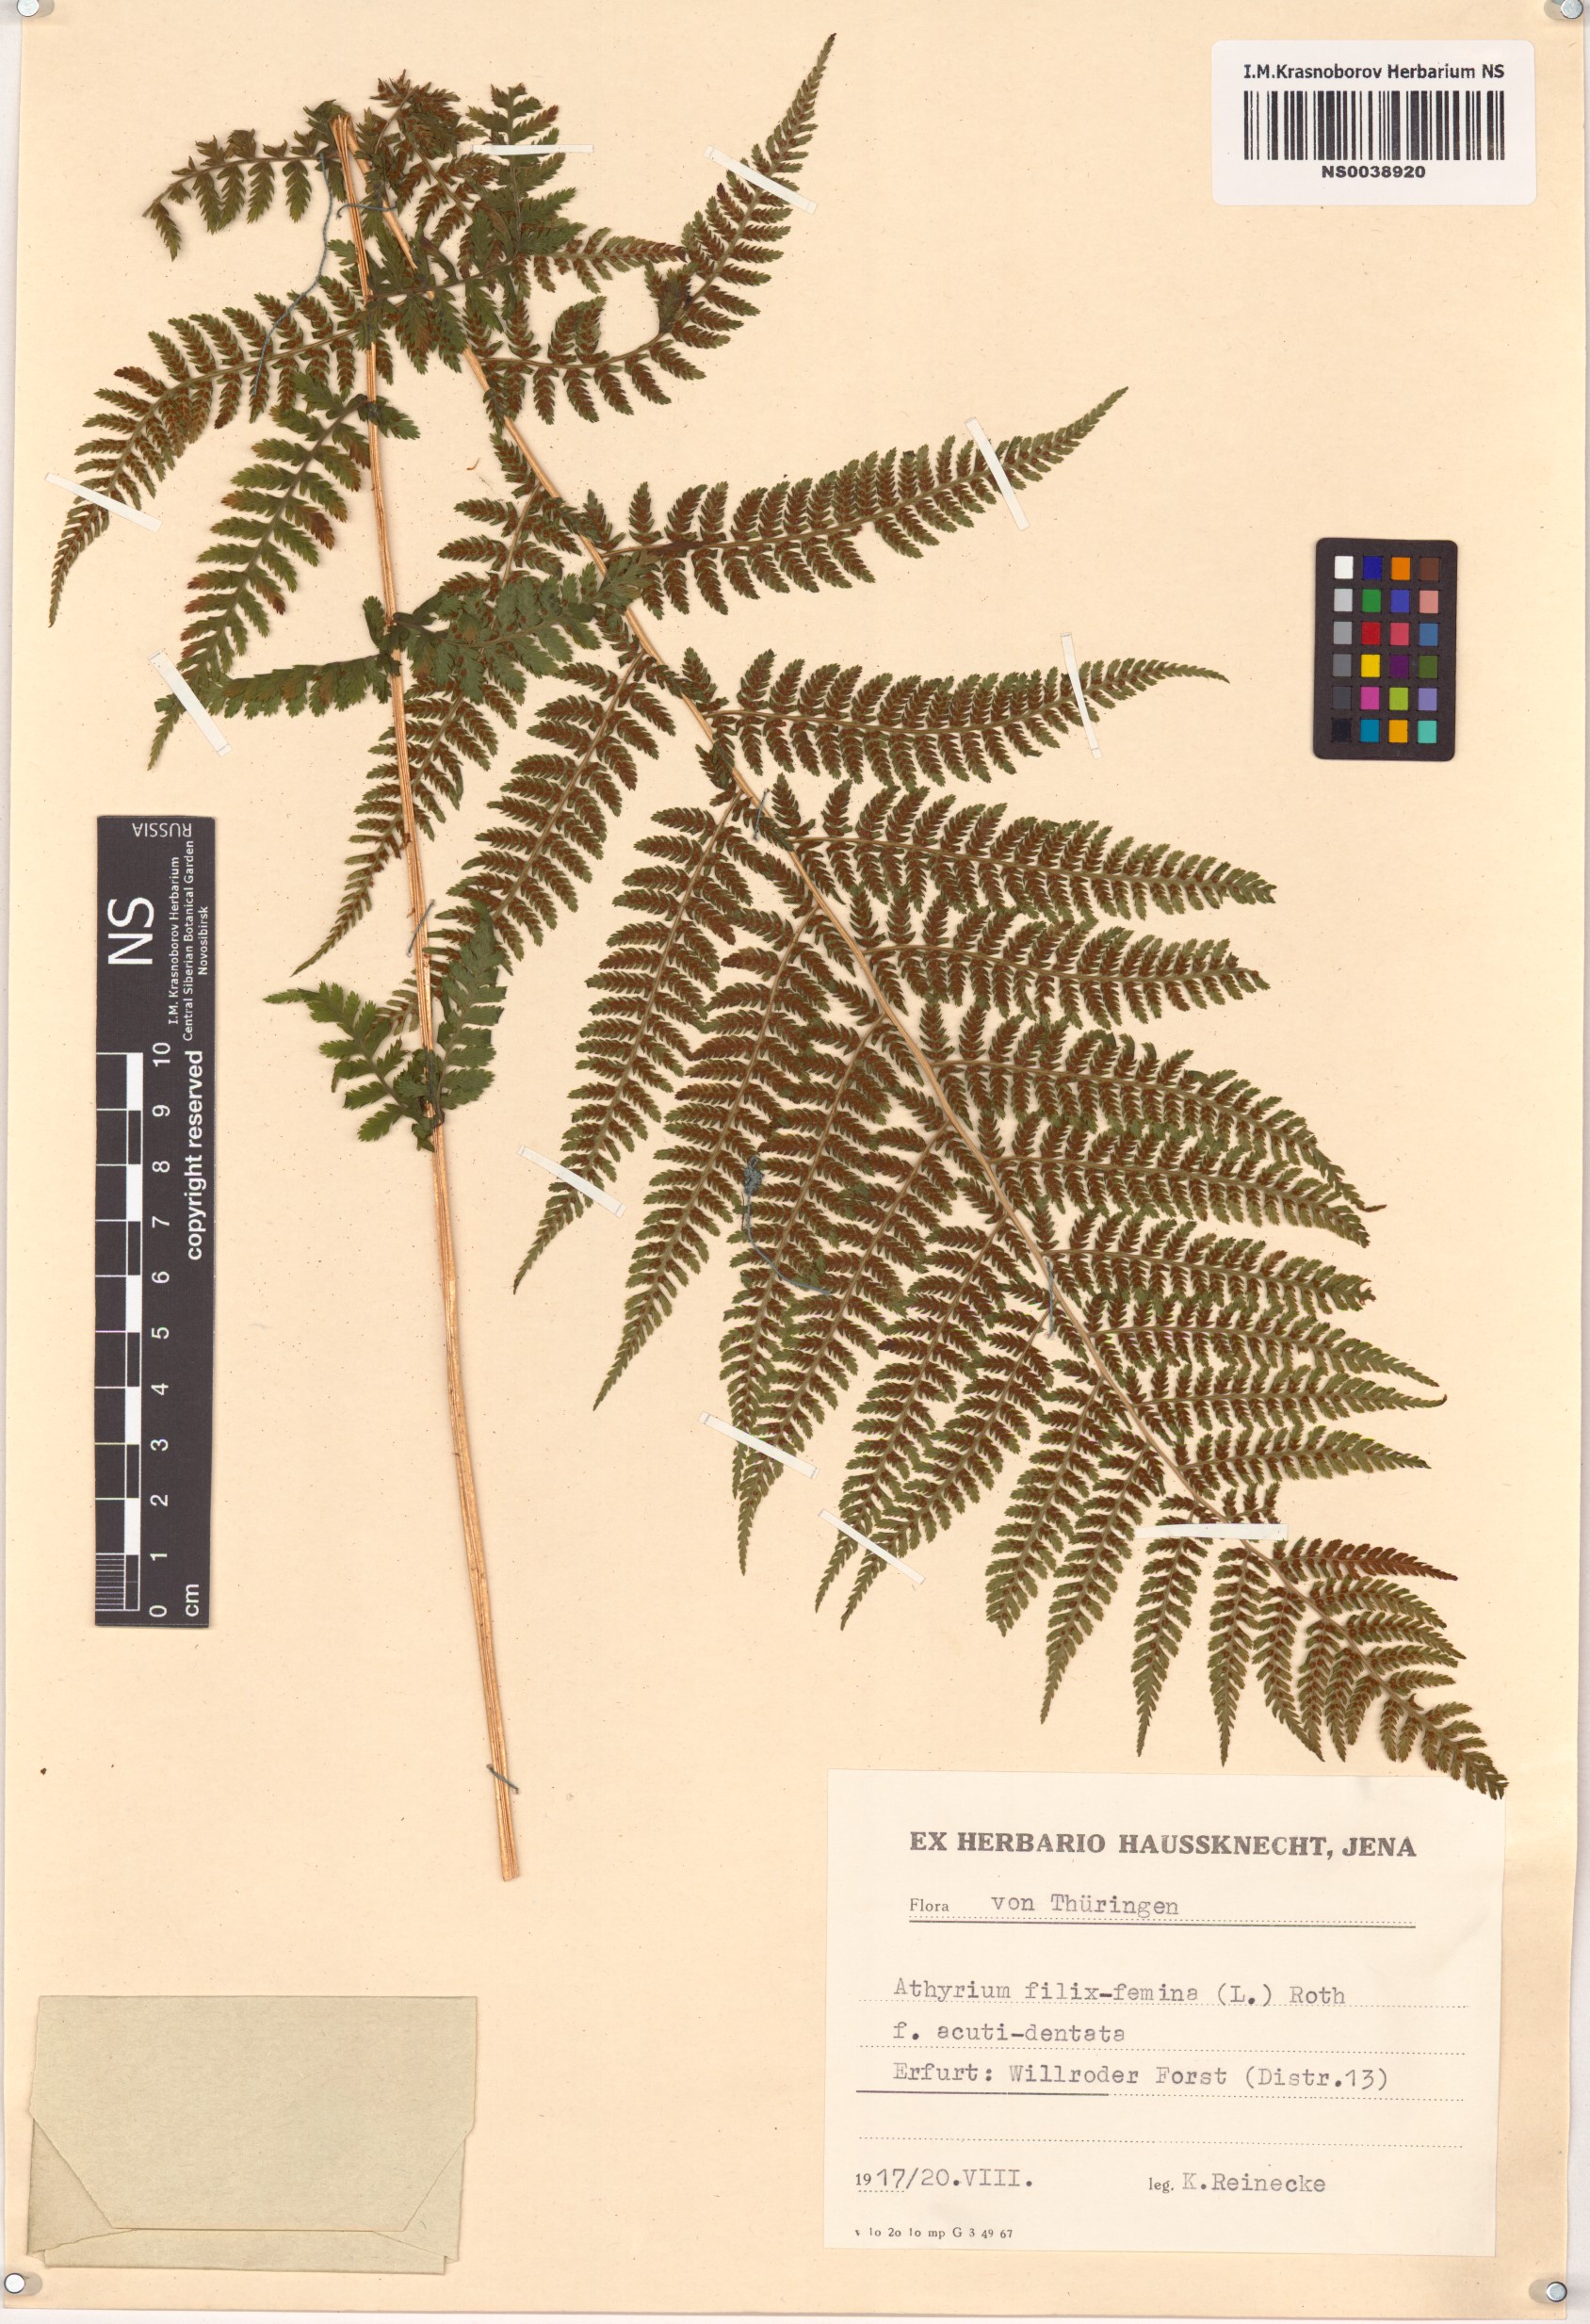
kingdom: Plantae
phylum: Tracheophyta
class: Polypodiopsida
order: Polypodiales
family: Athyriaceae
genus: Athyrium
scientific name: Athyrium filix-femina
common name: Lady fern
